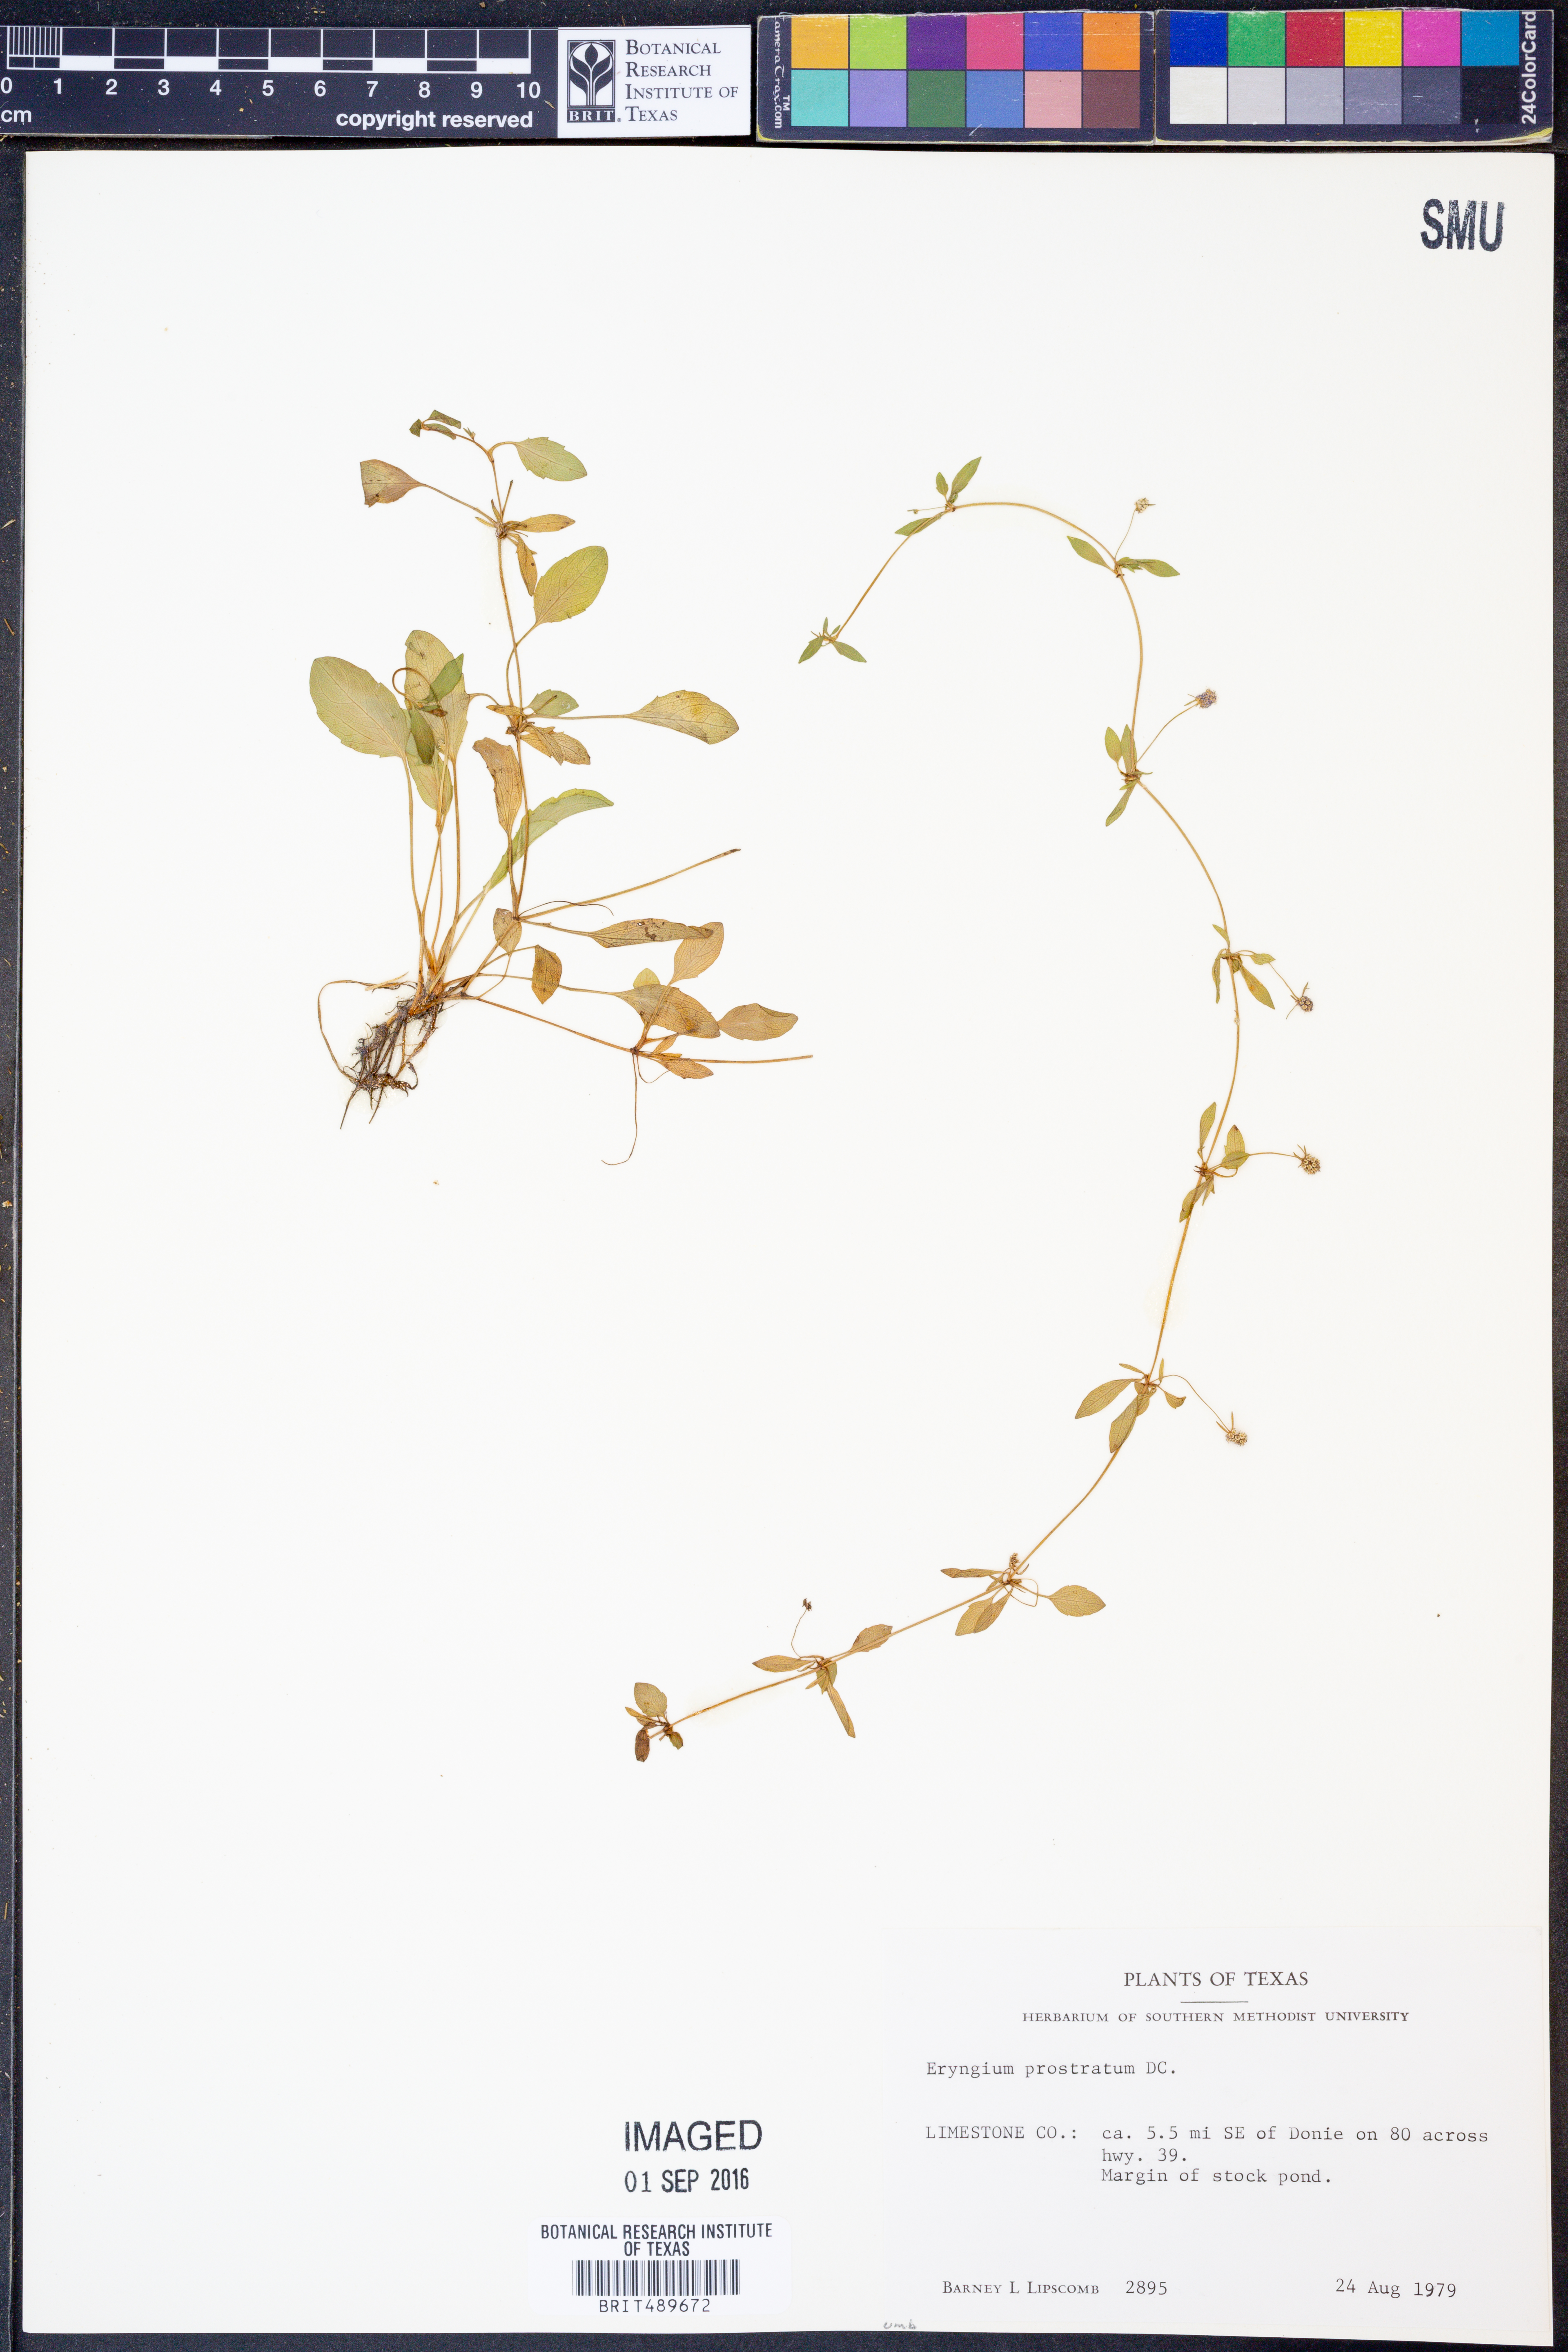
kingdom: Plantae
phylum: Tracheophyta
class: Magnoliopsida
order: Apiales
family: Apiaceae
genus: Eryngium
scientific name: Eryngium prostratum
